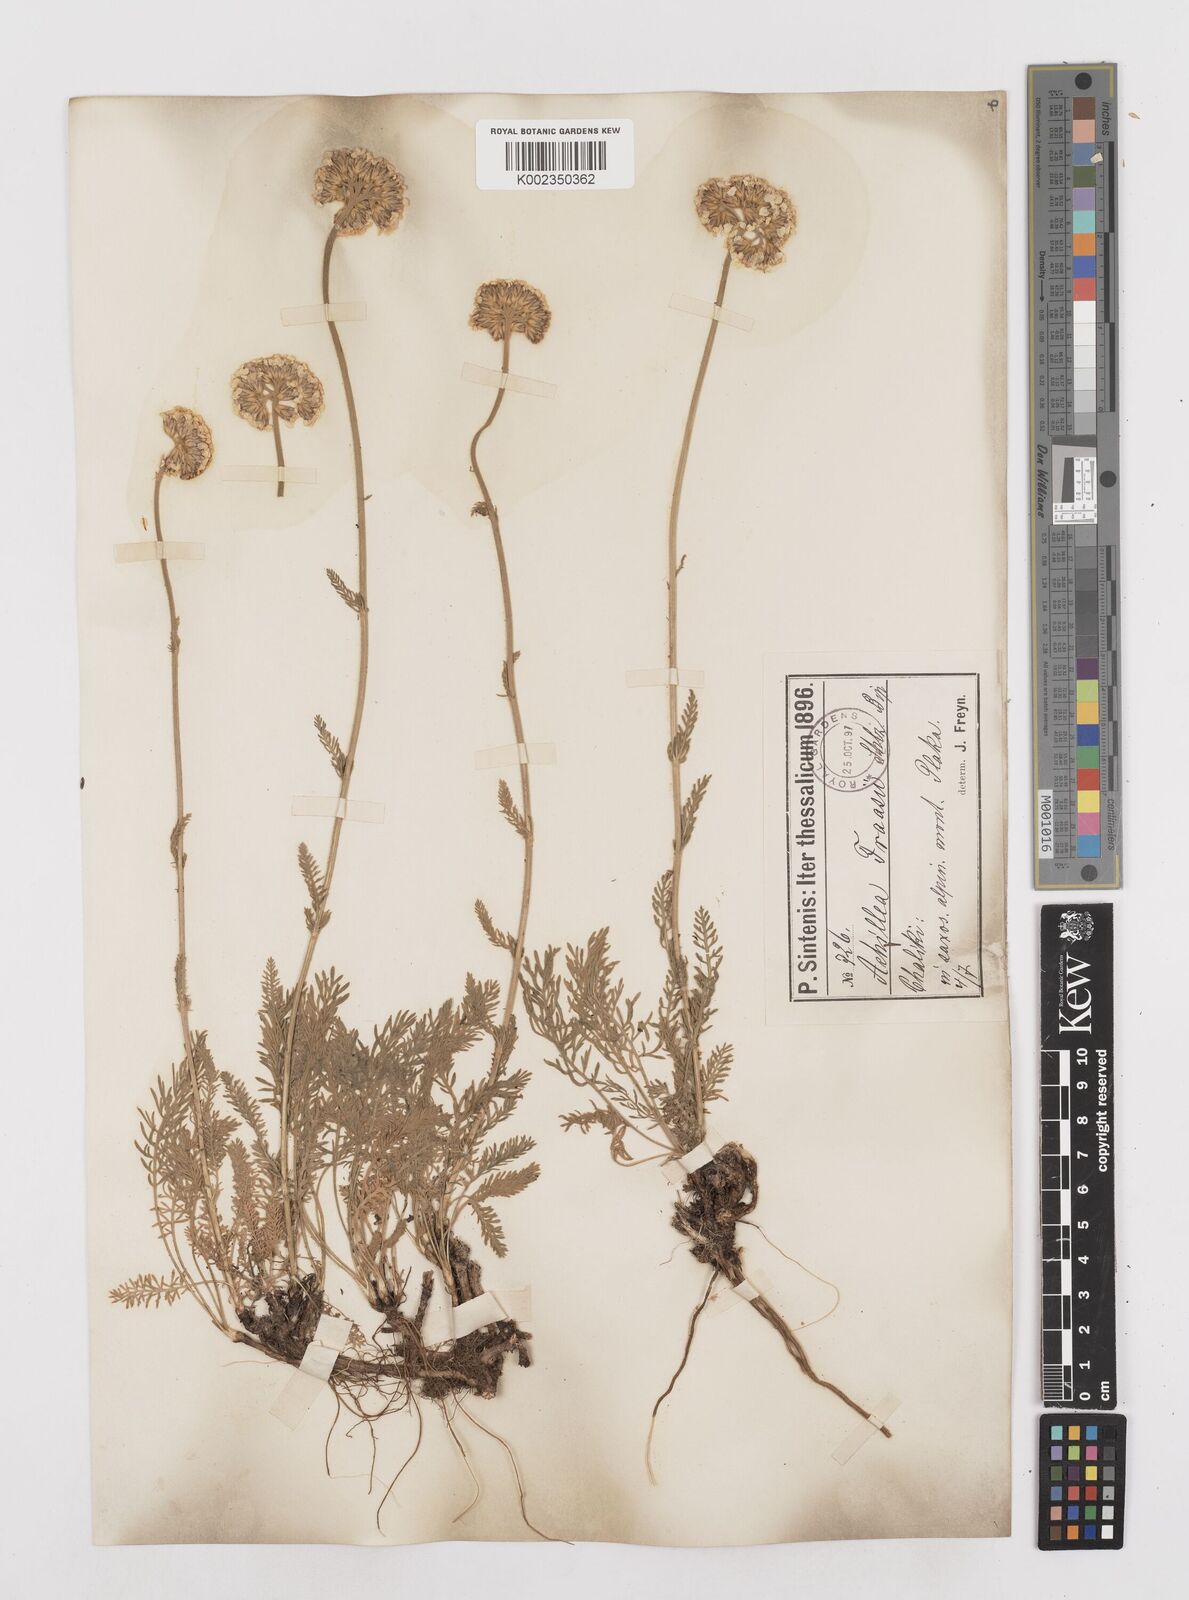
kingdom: Plantae
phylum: Tracheophyta
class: Magnoliopsida
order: Asterales
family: Asteraceae
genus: Achillea
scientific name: Achillea fraasii
